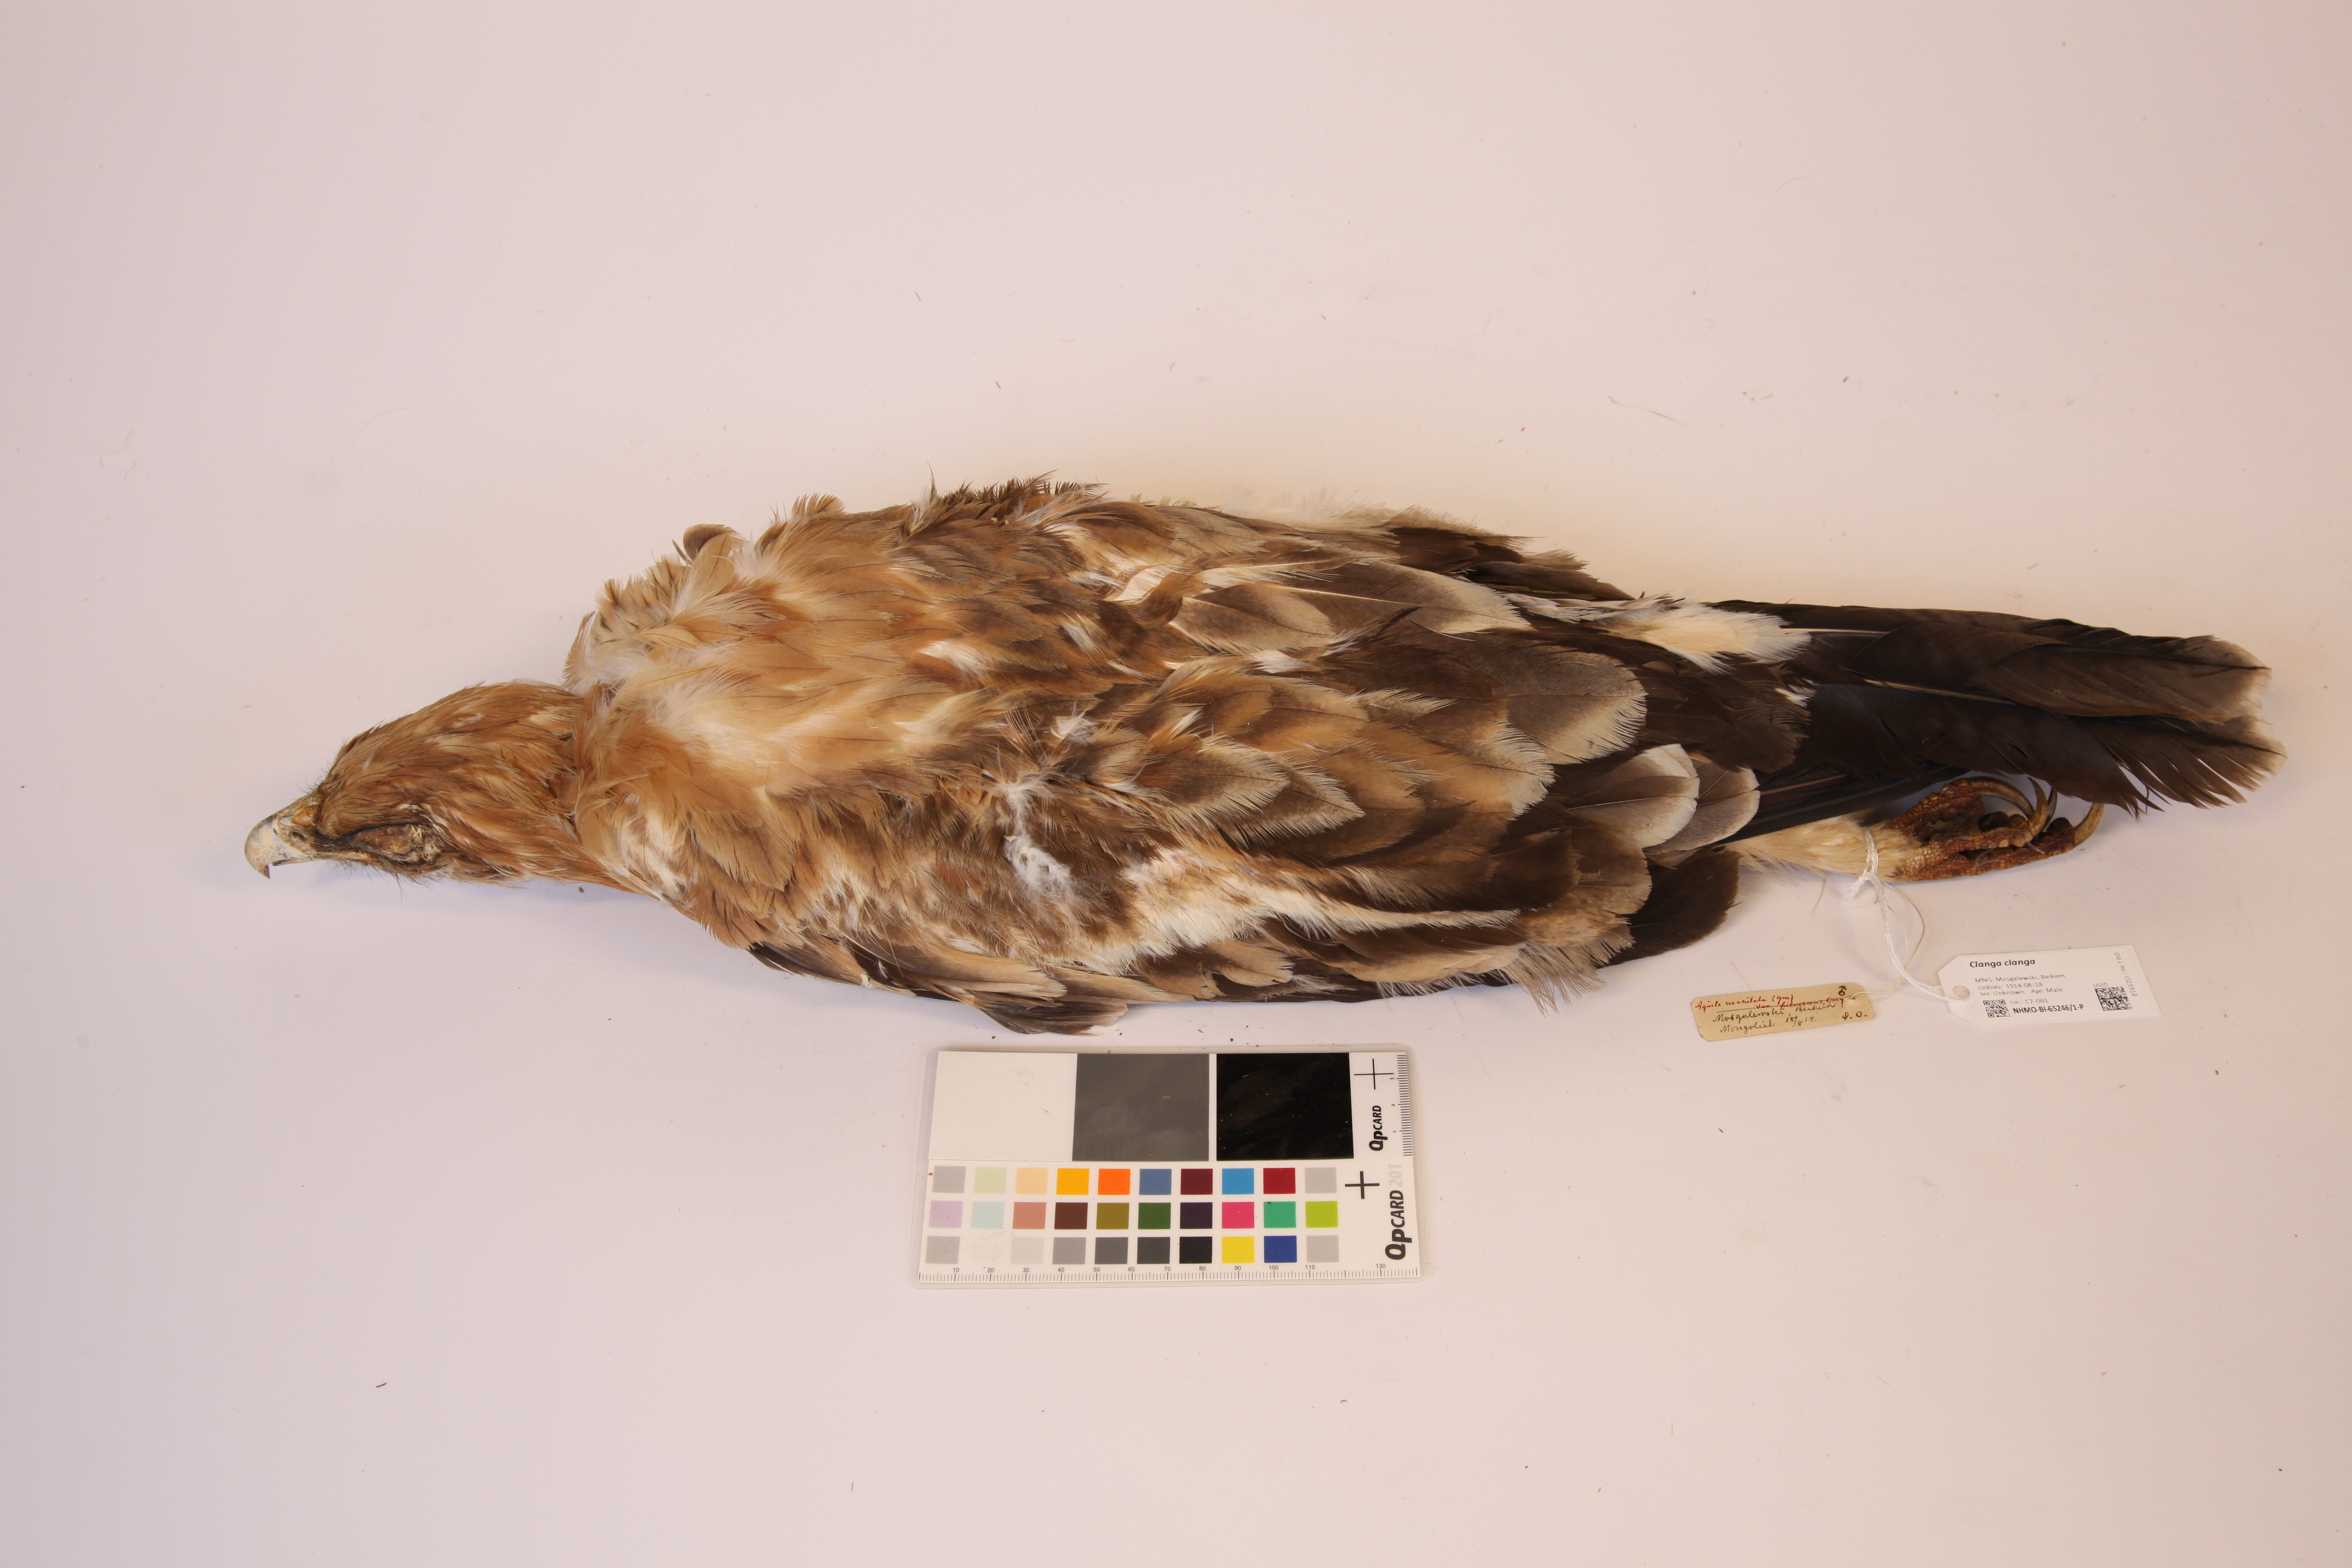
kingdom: Animalia
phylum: Chordata
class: Aves
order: Accipitriformes
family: Accipitridae
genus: Aquila
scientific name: Aquila clanga
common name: Greater spotted eagle
